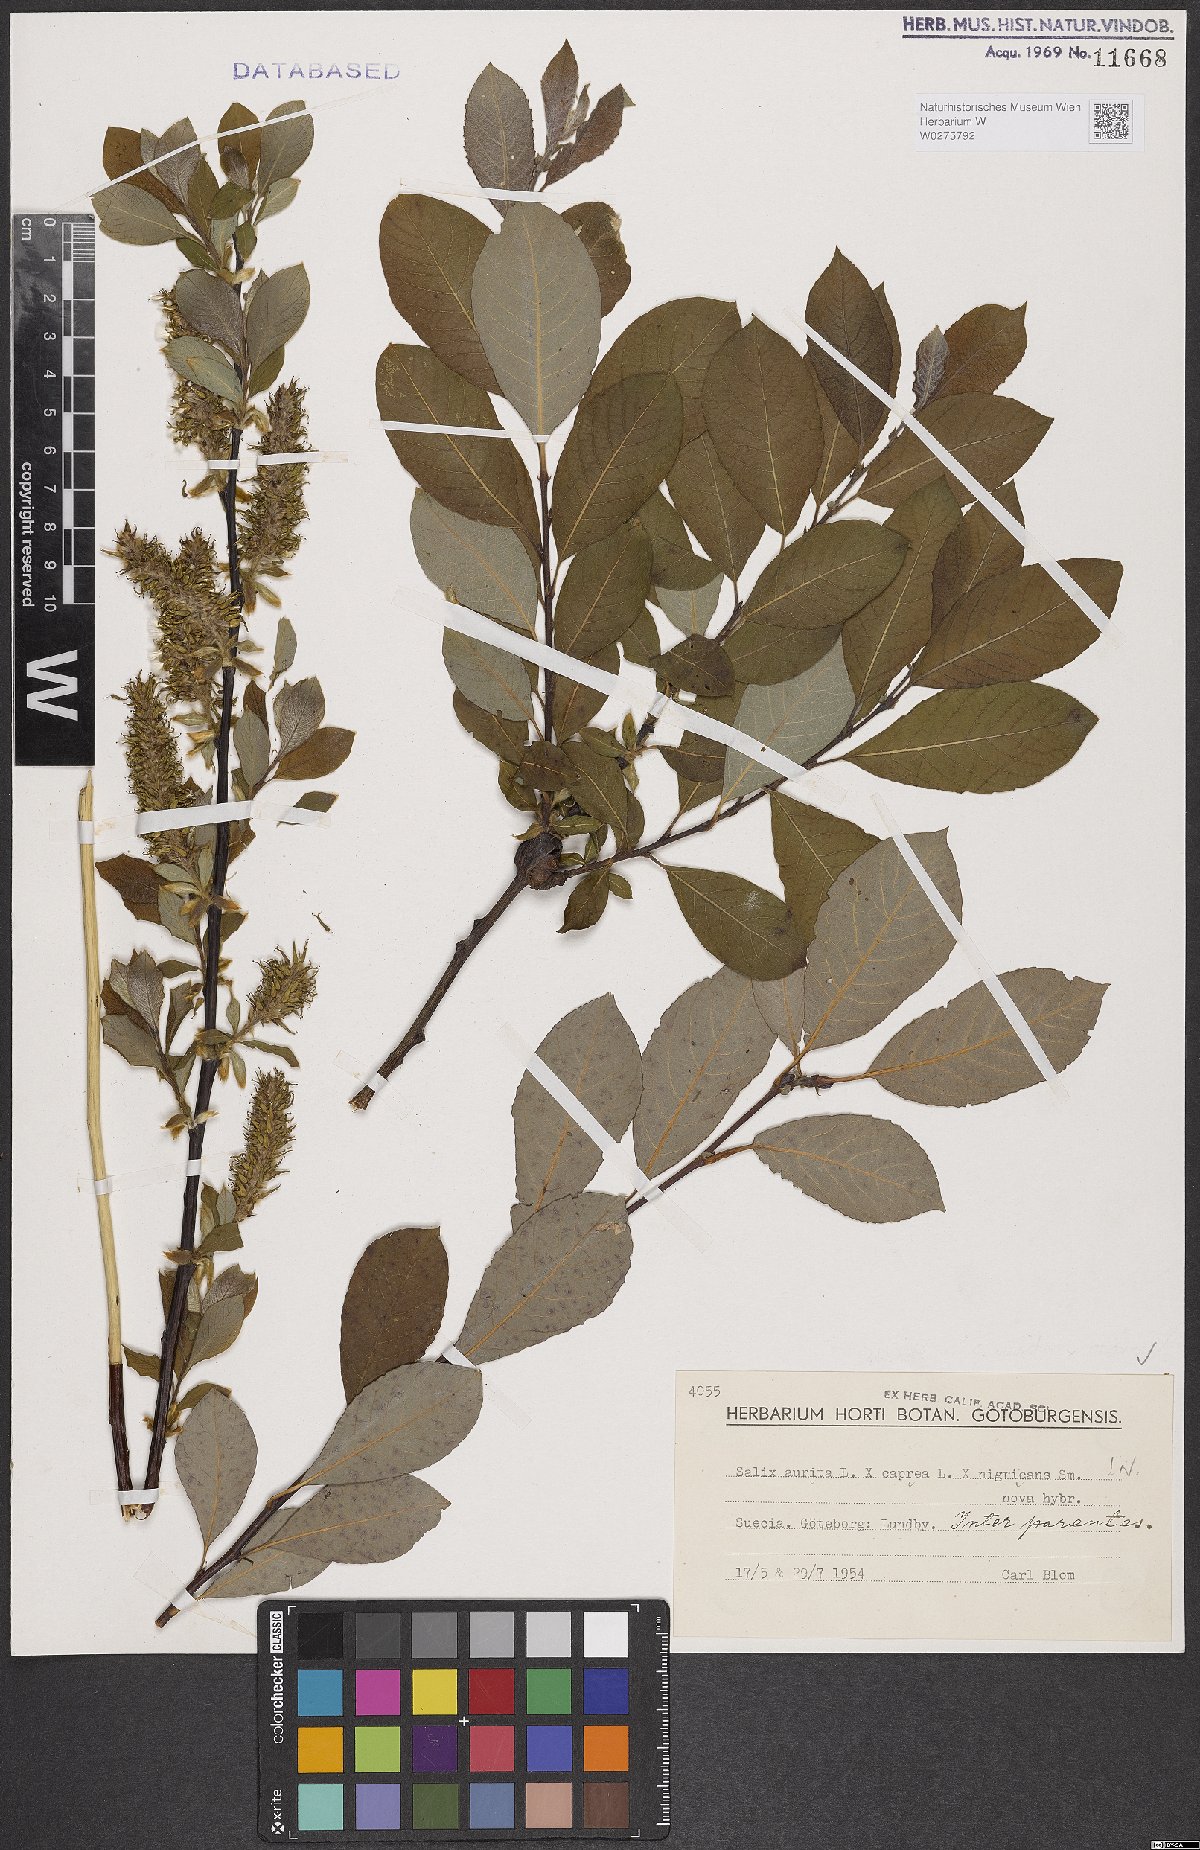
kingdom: Plantae
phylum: Tracheophyta
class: Magnoliopsida
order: Malpighiales
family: Salicaceae
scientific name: Salicaceae
